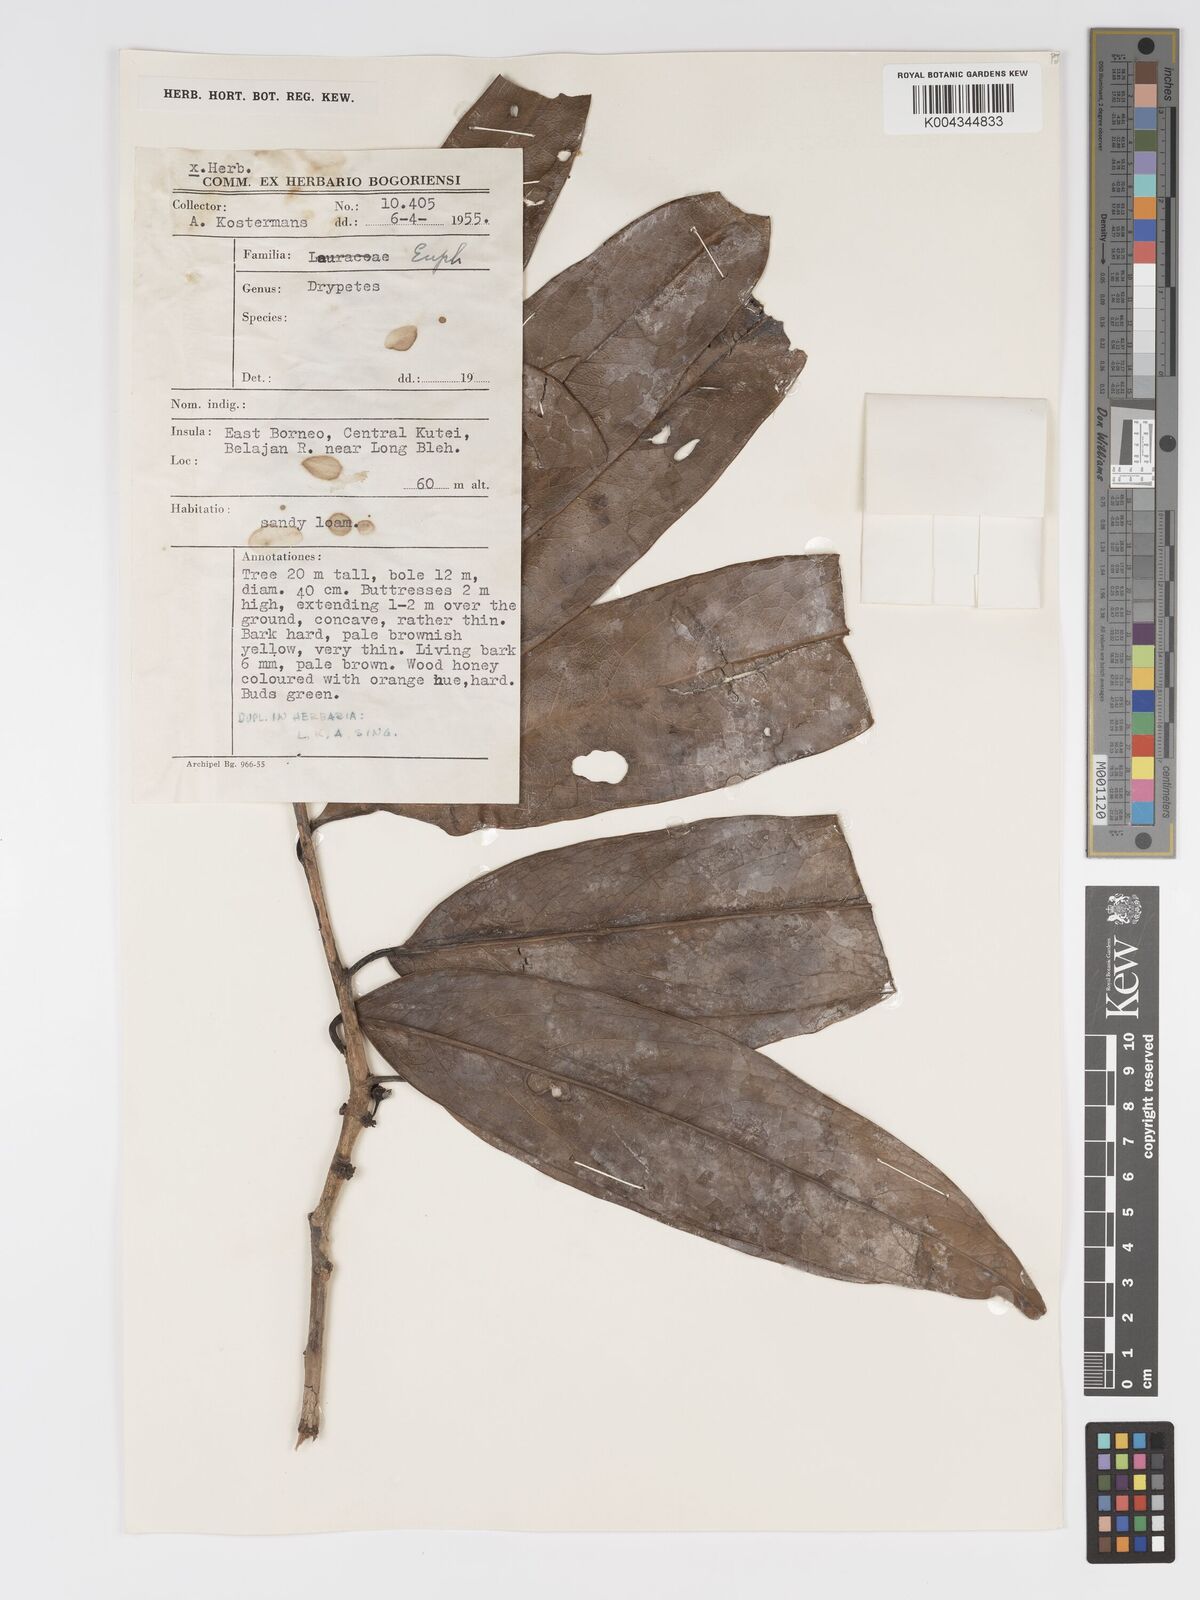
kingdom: Plantae
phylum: Tracheophyta
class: Magnoliopsida
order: Malpighiales
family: Putranjivaceae
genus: Drypetes
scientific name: Drypetes macrostigma
